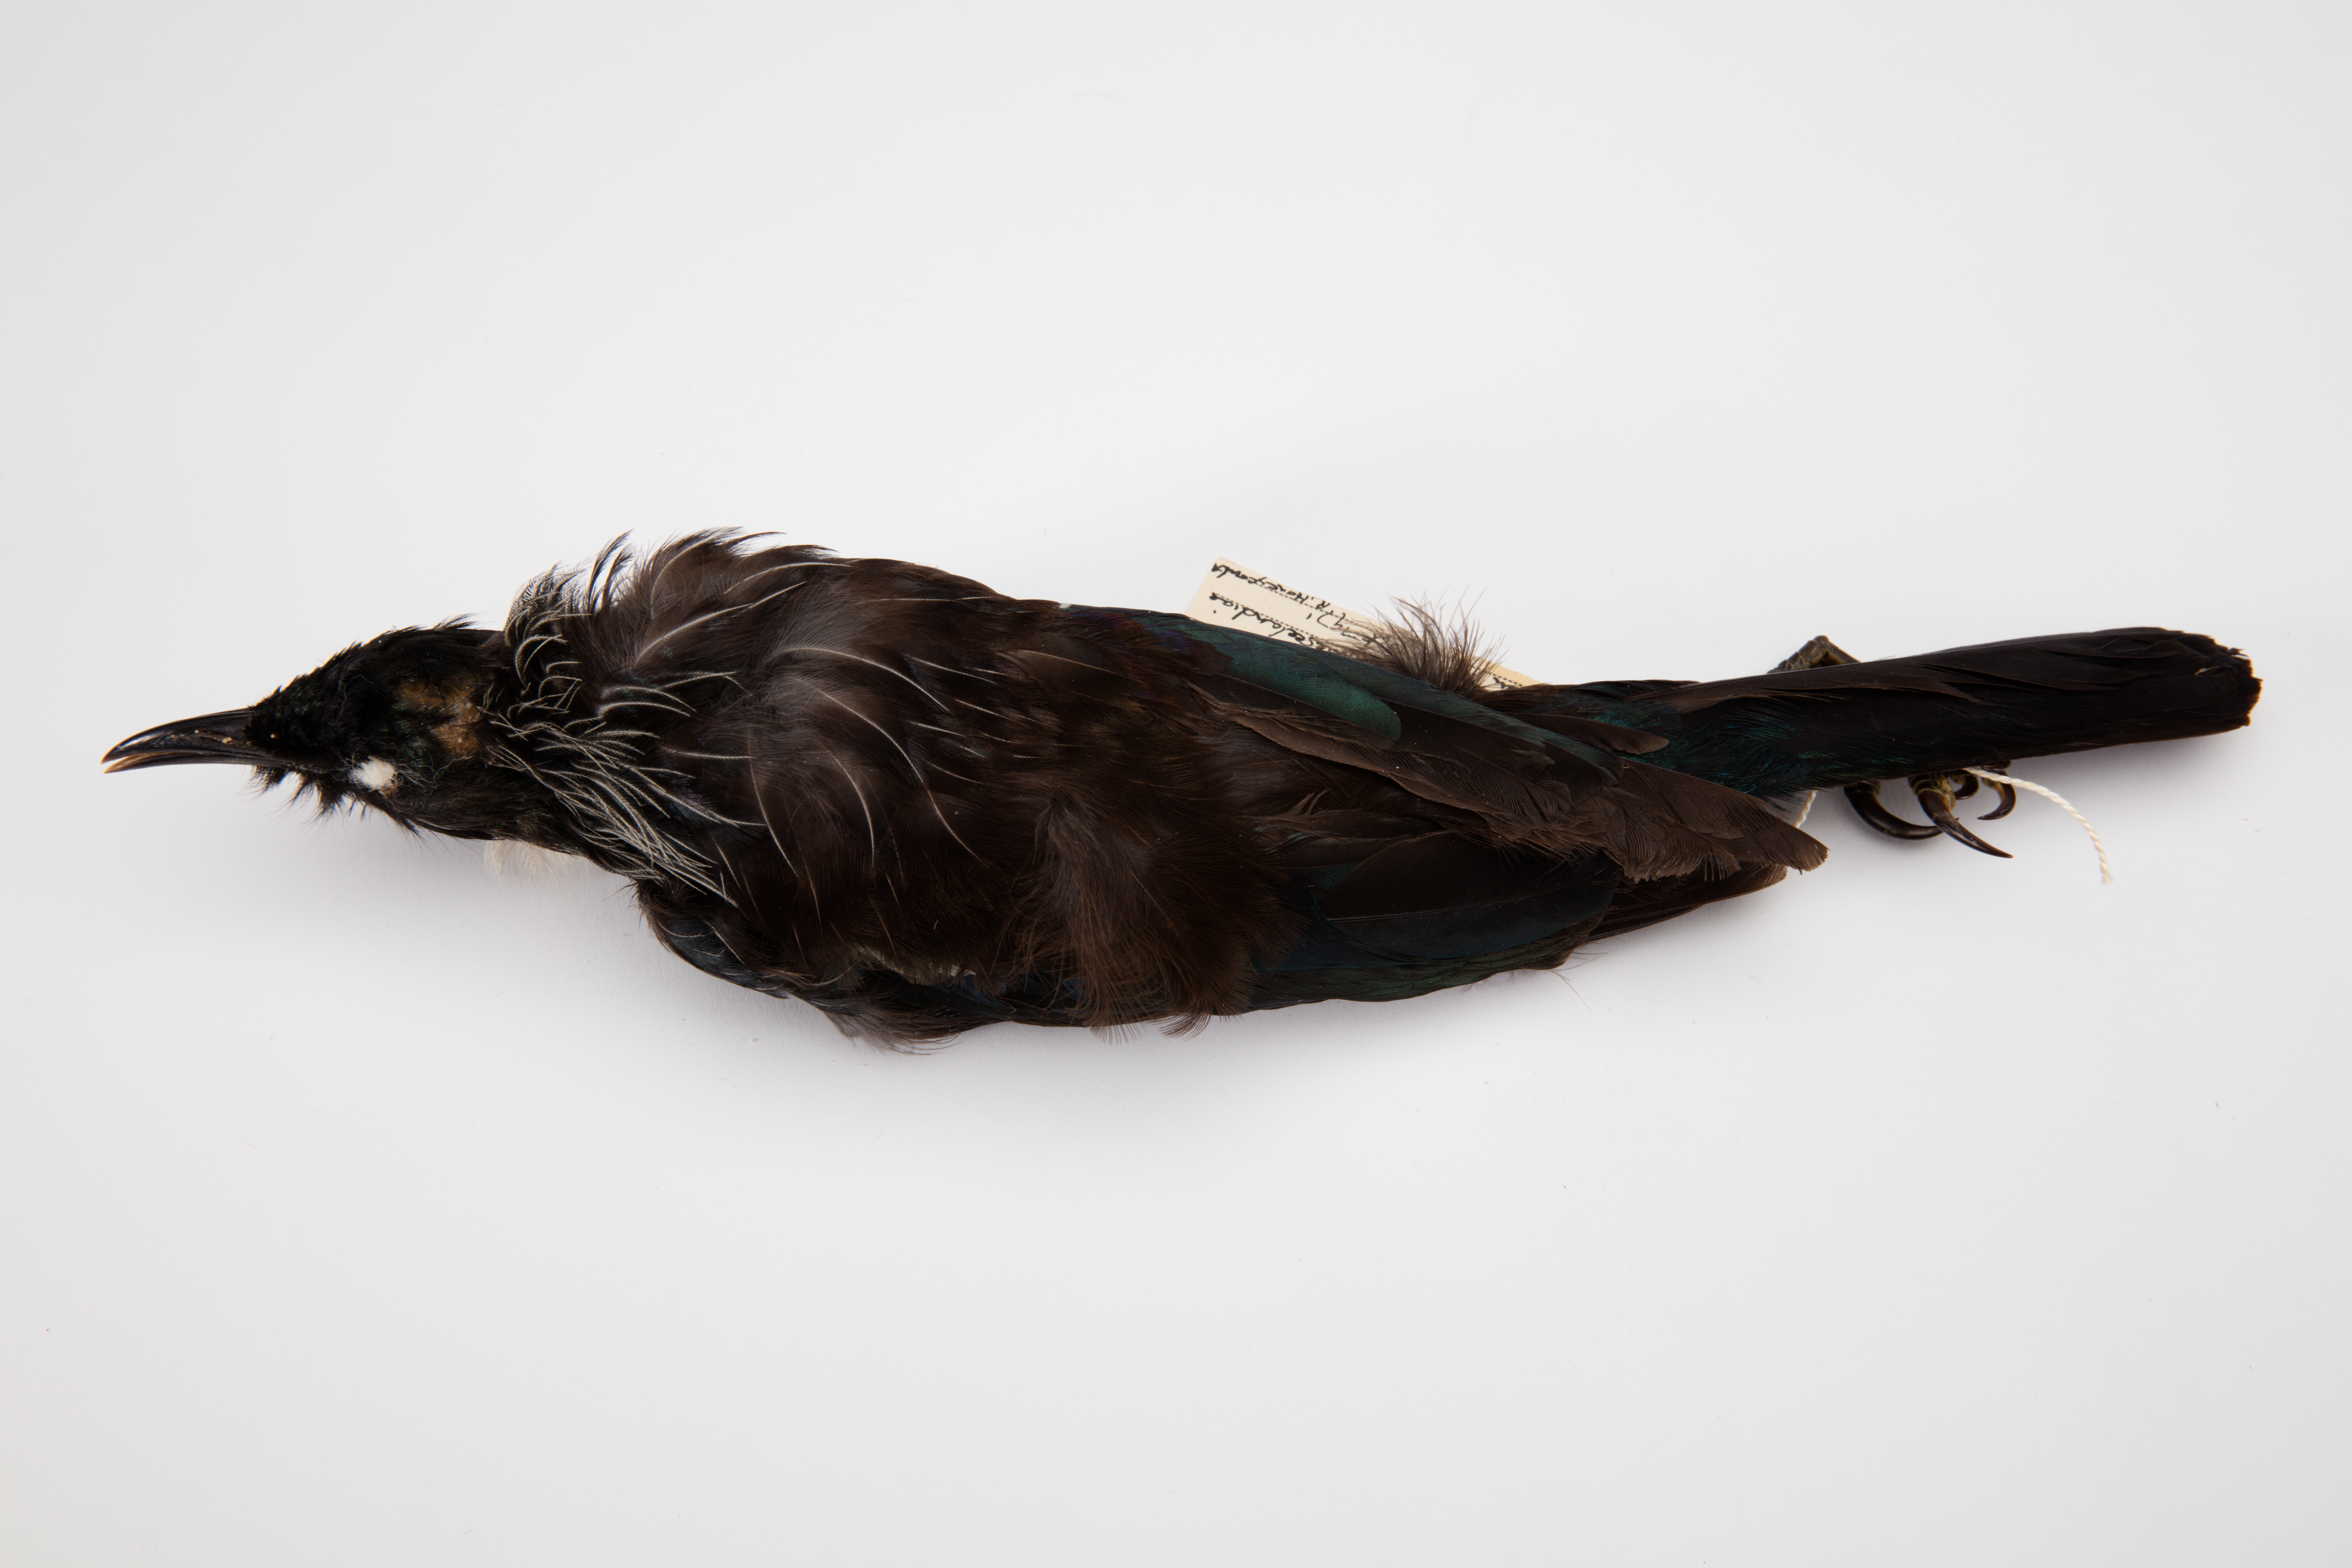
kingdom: Animalia
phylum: Chordata
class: Aves
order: Passeriformes
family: Meliphagidae
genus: Prosthemadera
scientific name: Prosthemadera novaeseelandiae
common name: Tui
